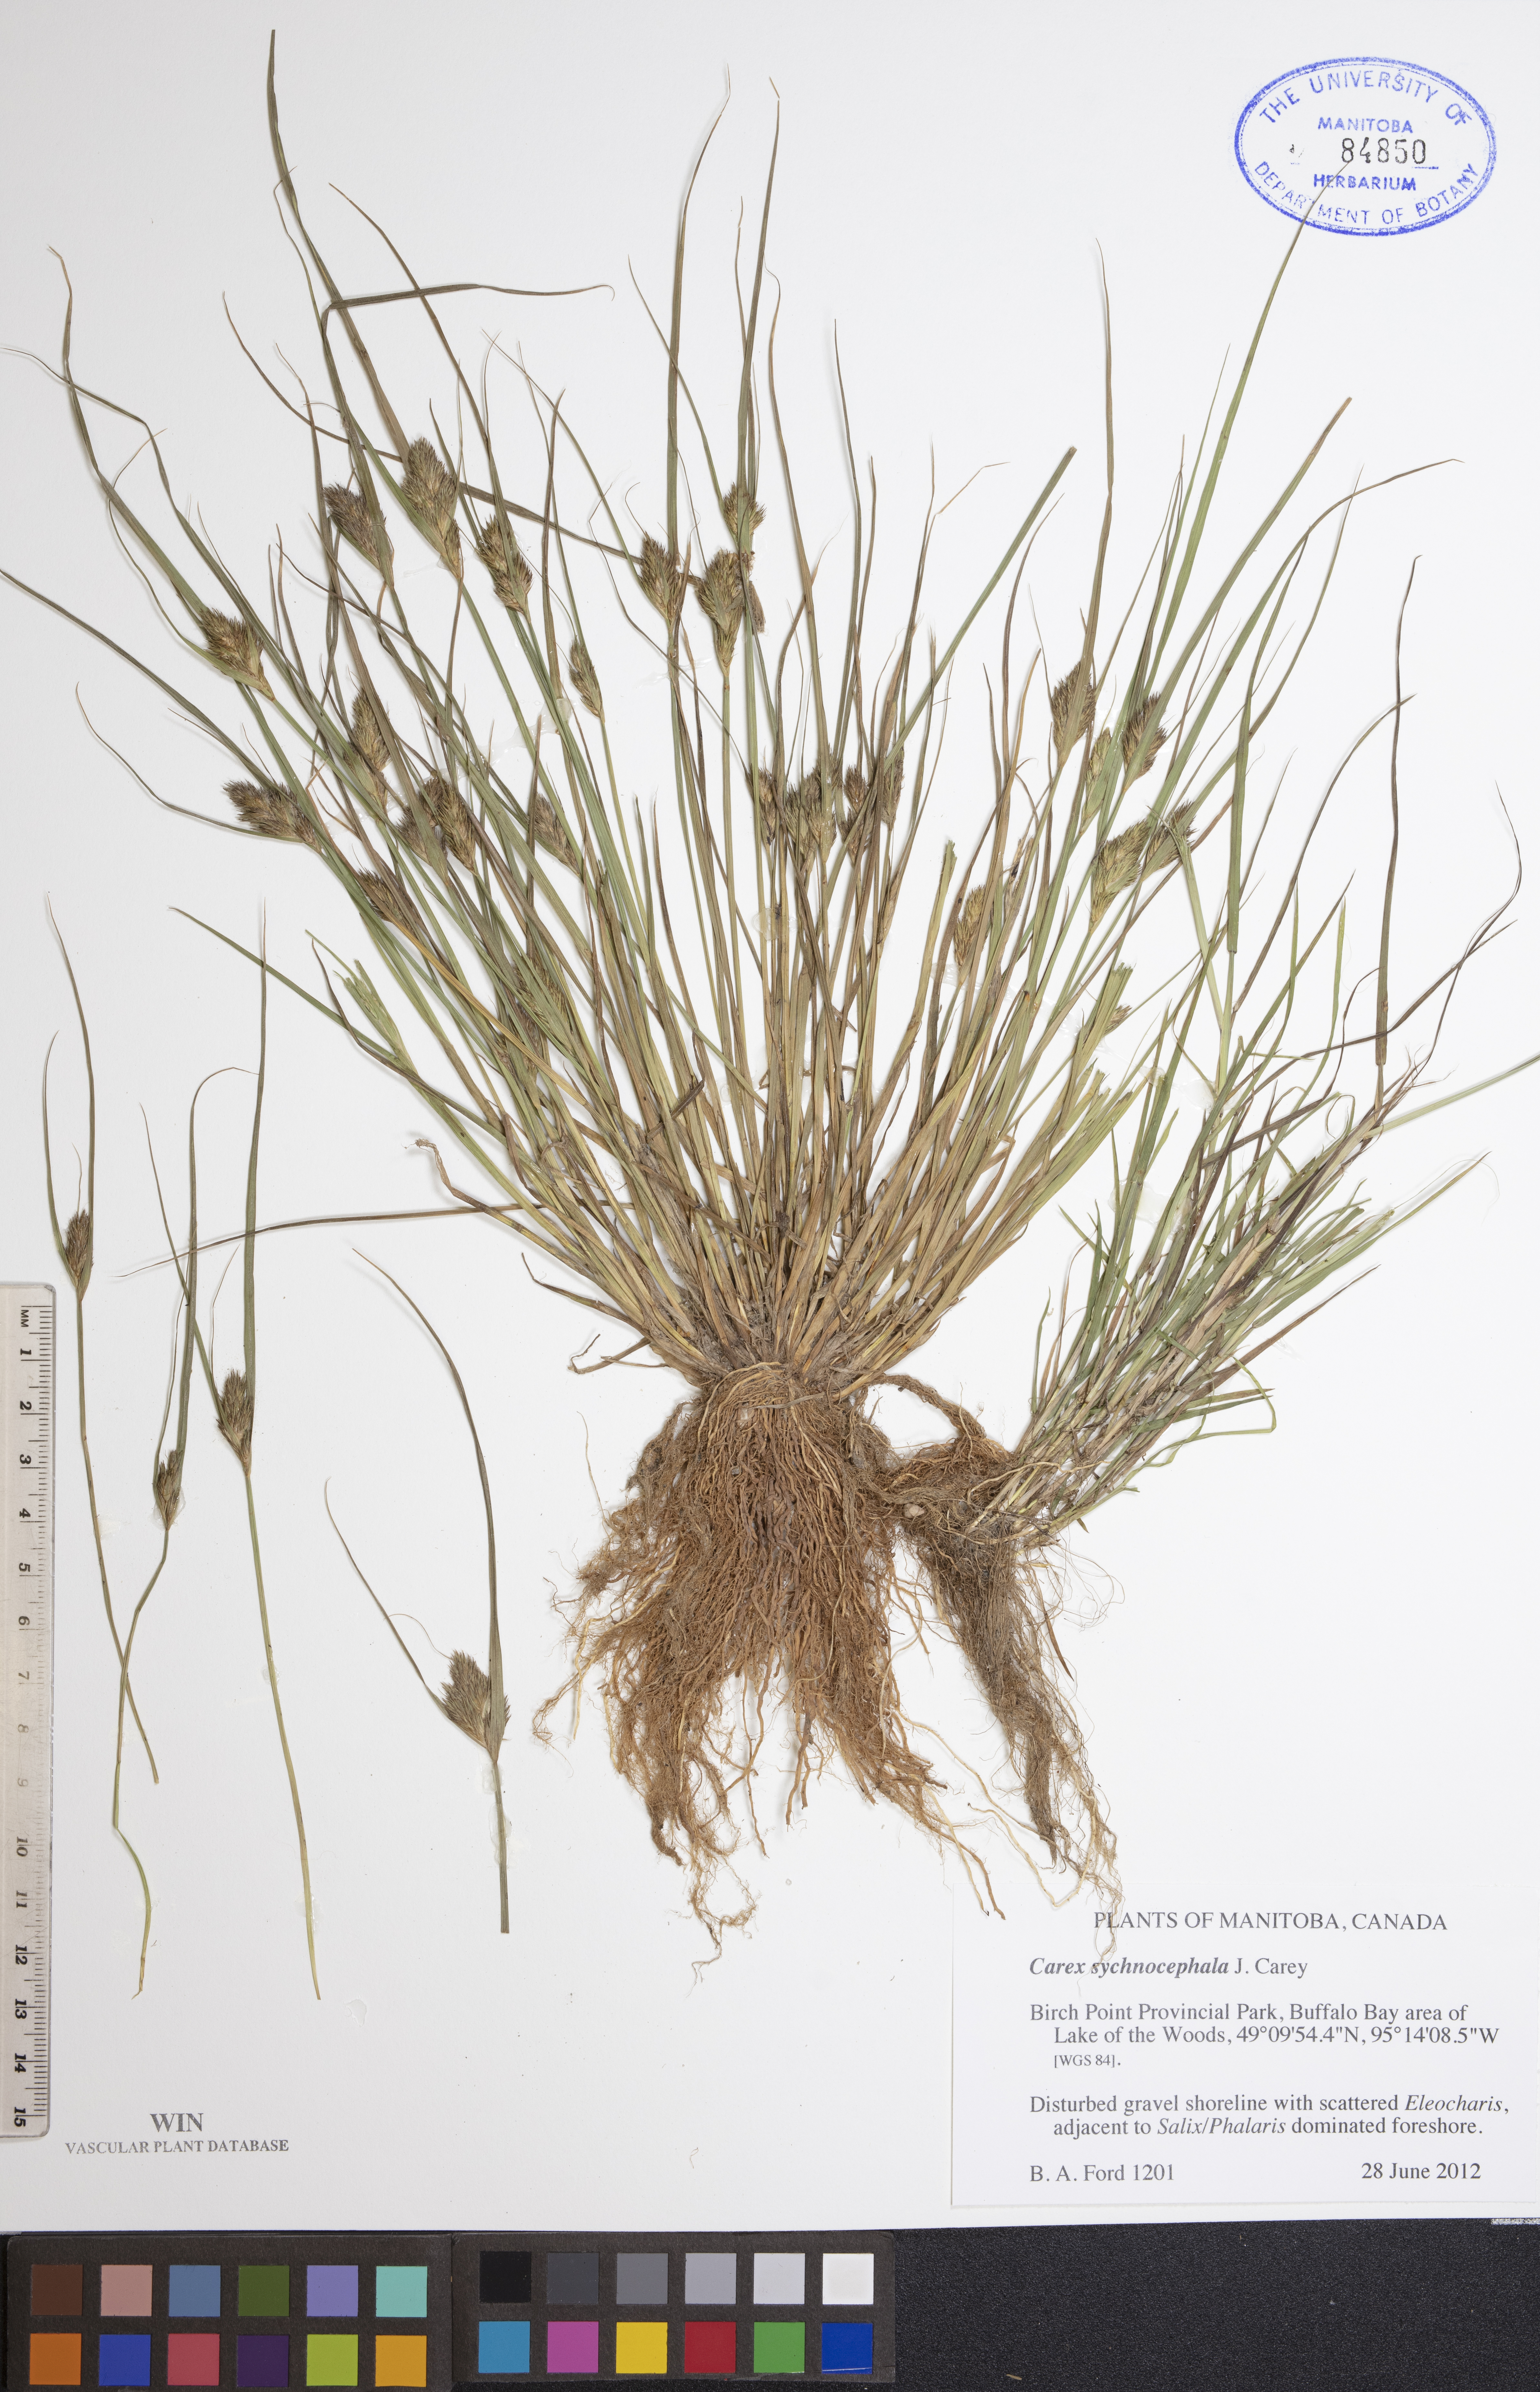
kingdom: Plantae
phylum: Tracheophyta
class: Liliopsida
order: Poales
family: Cyperaceae
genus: Carex
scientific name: Carex sychnocephala
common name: Dense long-beaked sedge
